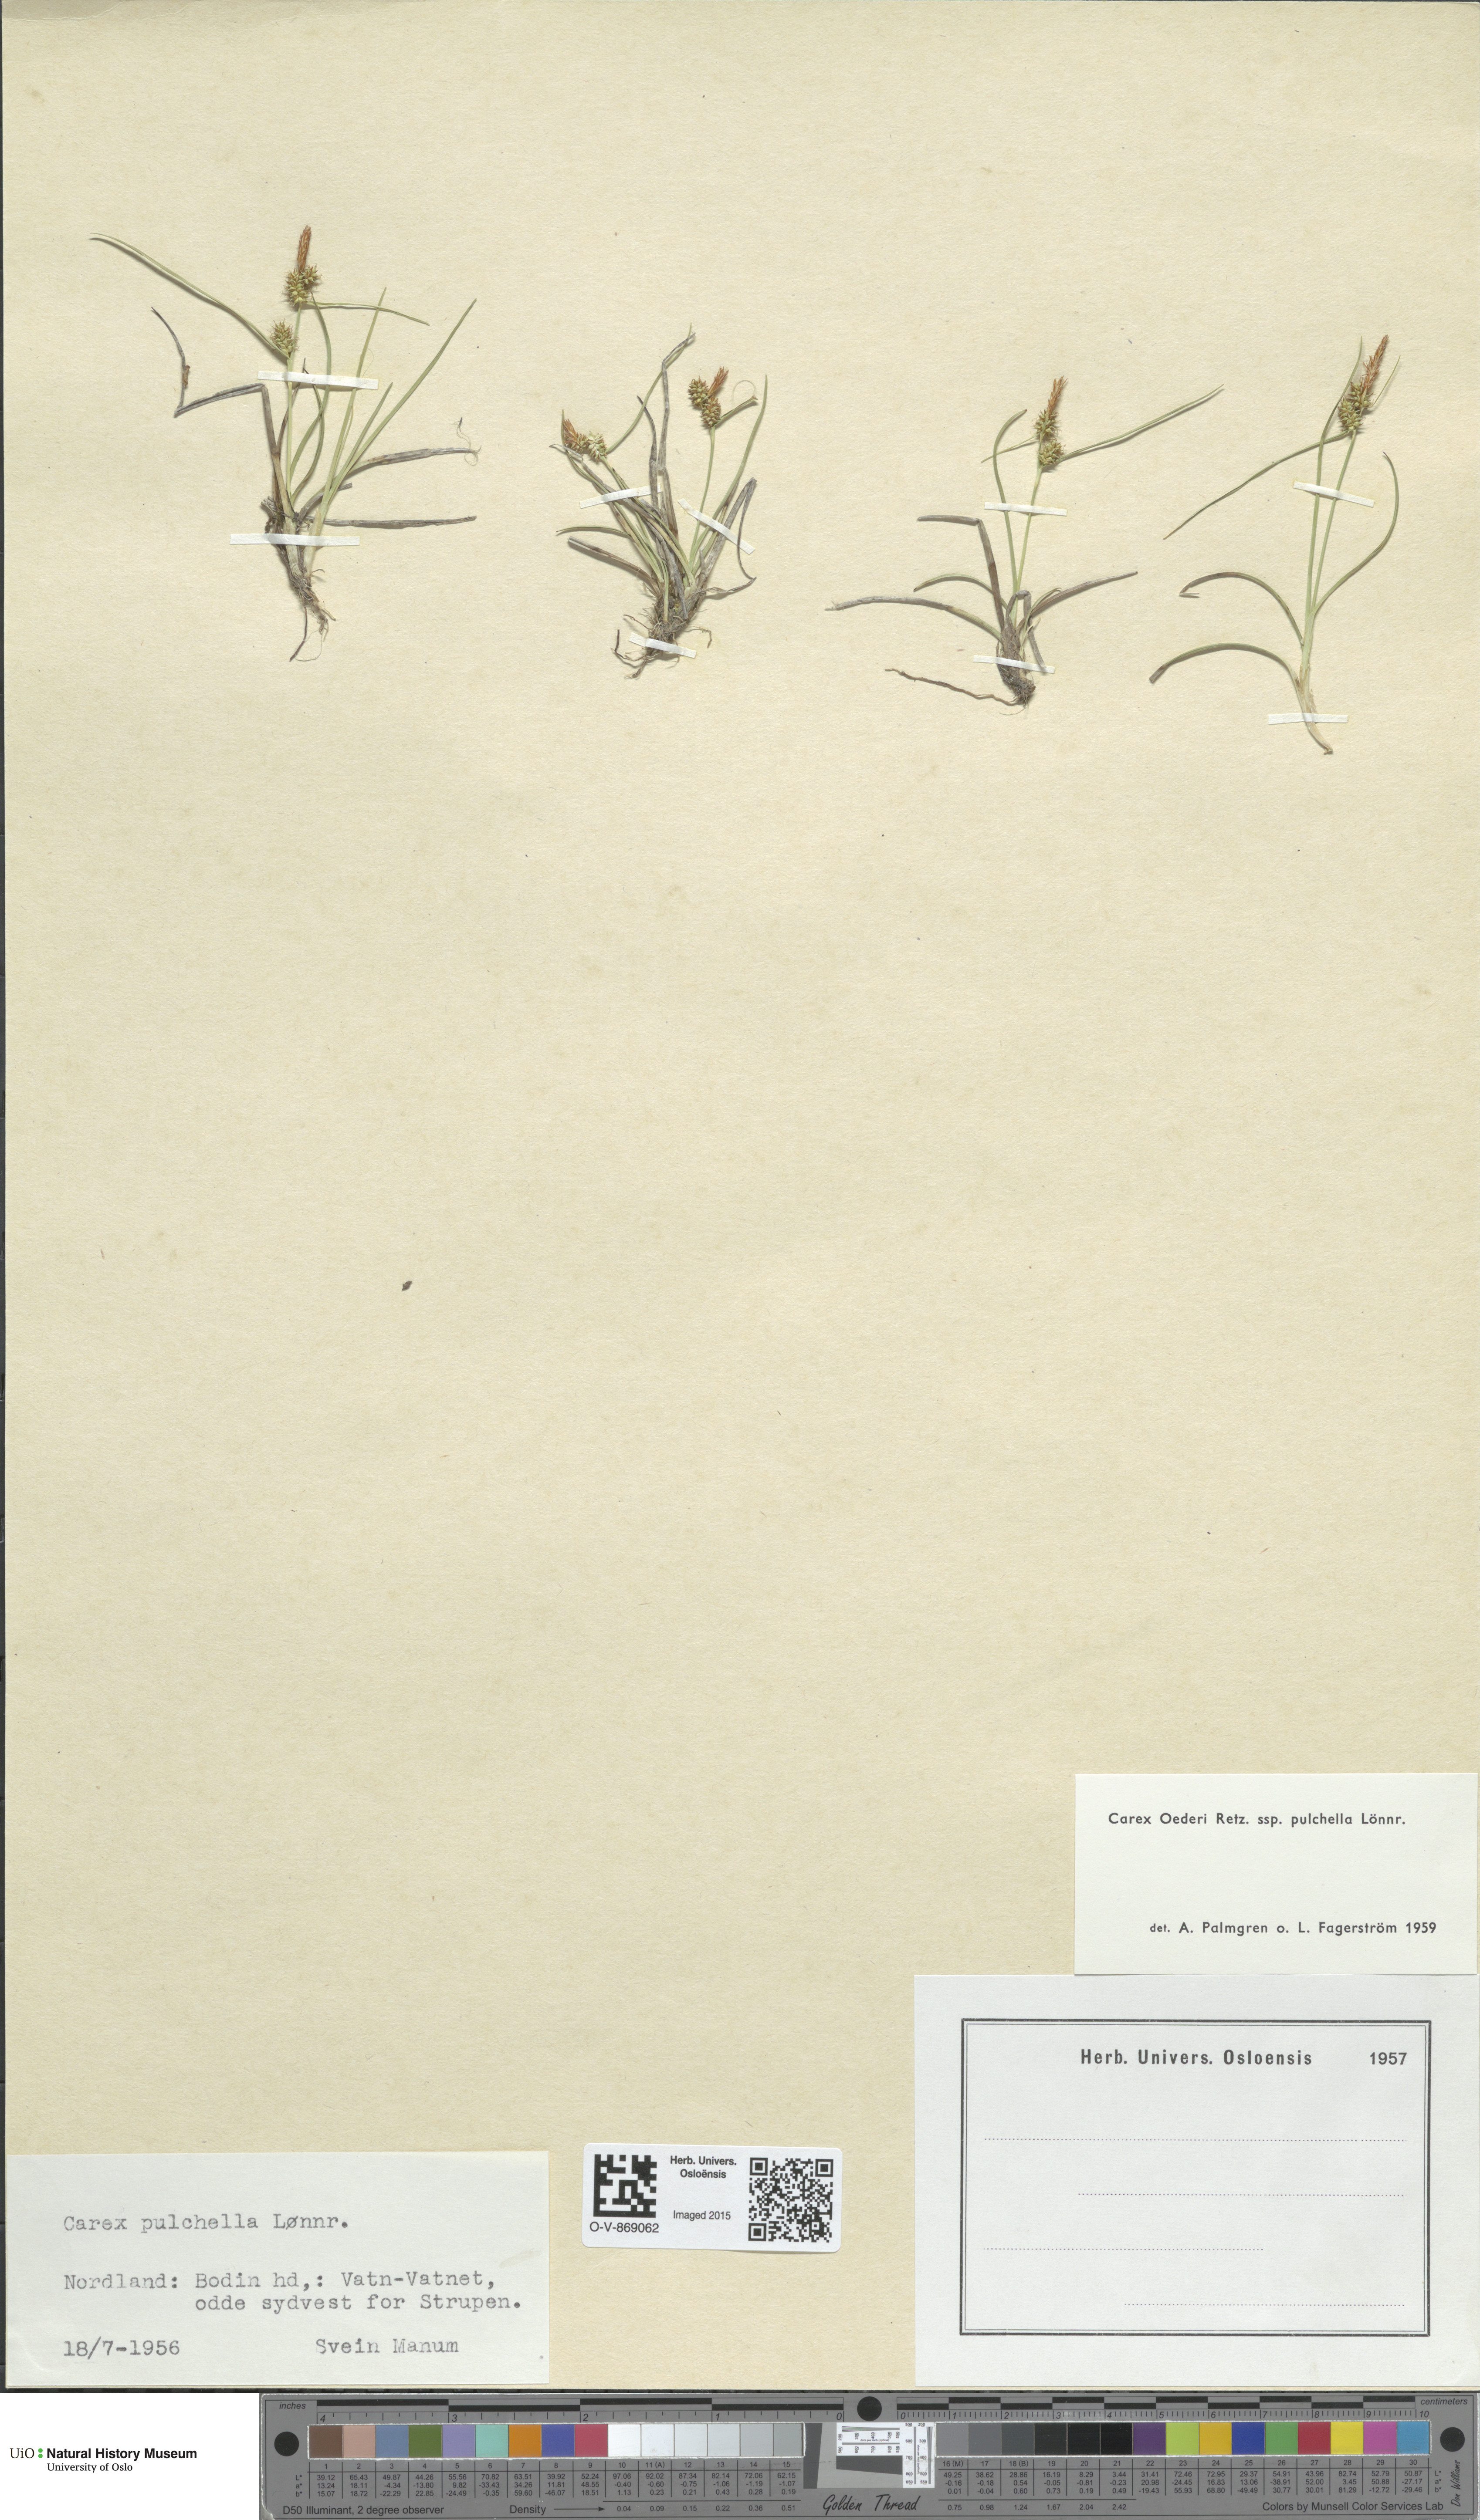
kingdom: Plantae
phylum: Tracheophyta
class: Liliopsida
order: Poales
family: Cyperaceae
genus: Carex
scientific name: Carex oederi
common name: Common & small-fruited yellow-sedge
